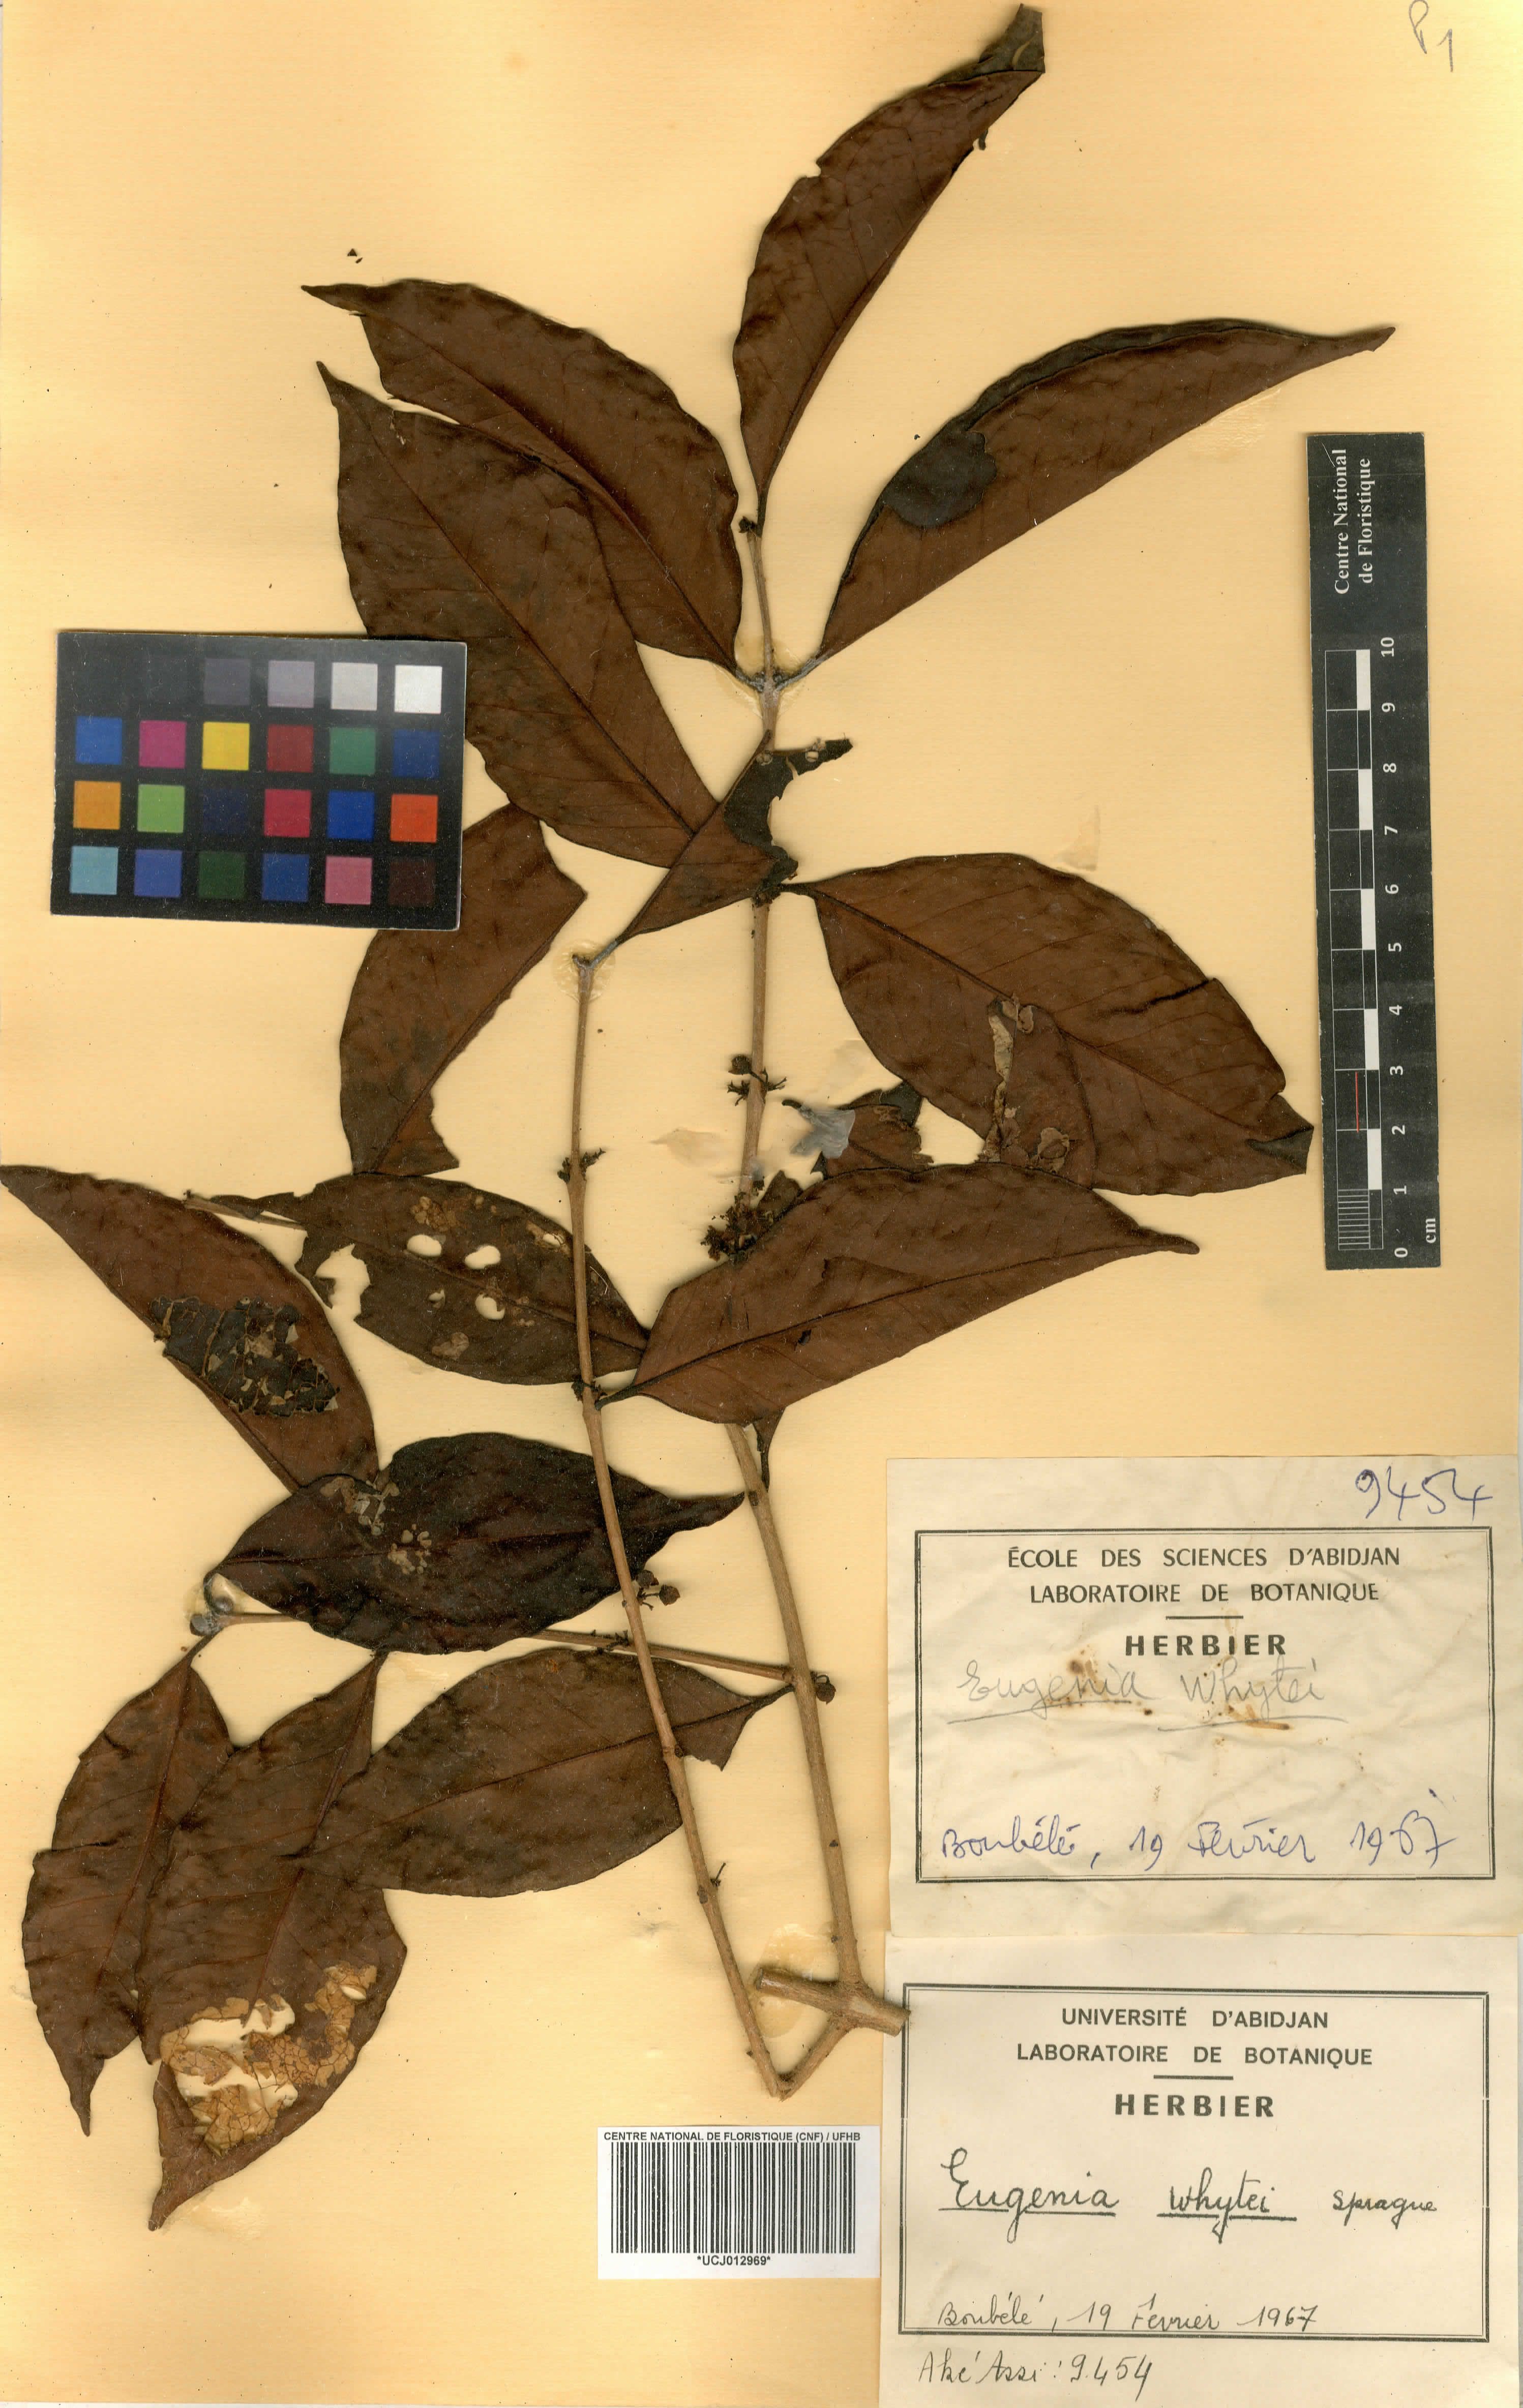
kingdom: Plantae
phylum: Tracheophyta
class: Magnoliopsida
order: Myrtales
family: Myrtaceae
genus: Eugenia
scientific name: Eugenia whytei
